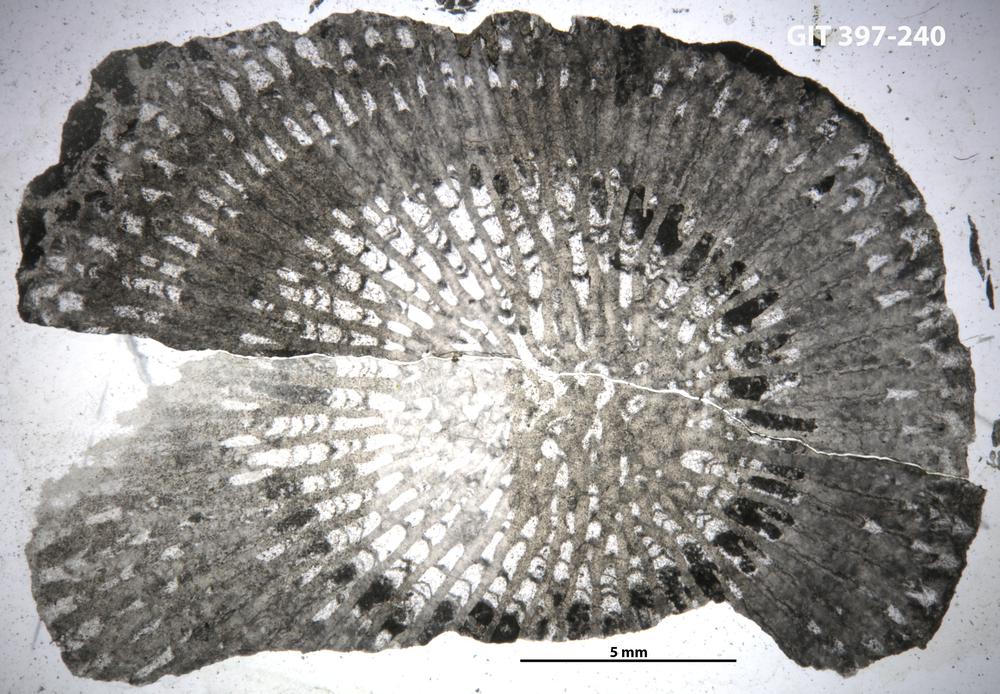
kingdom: Animalia
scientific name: Animalia
